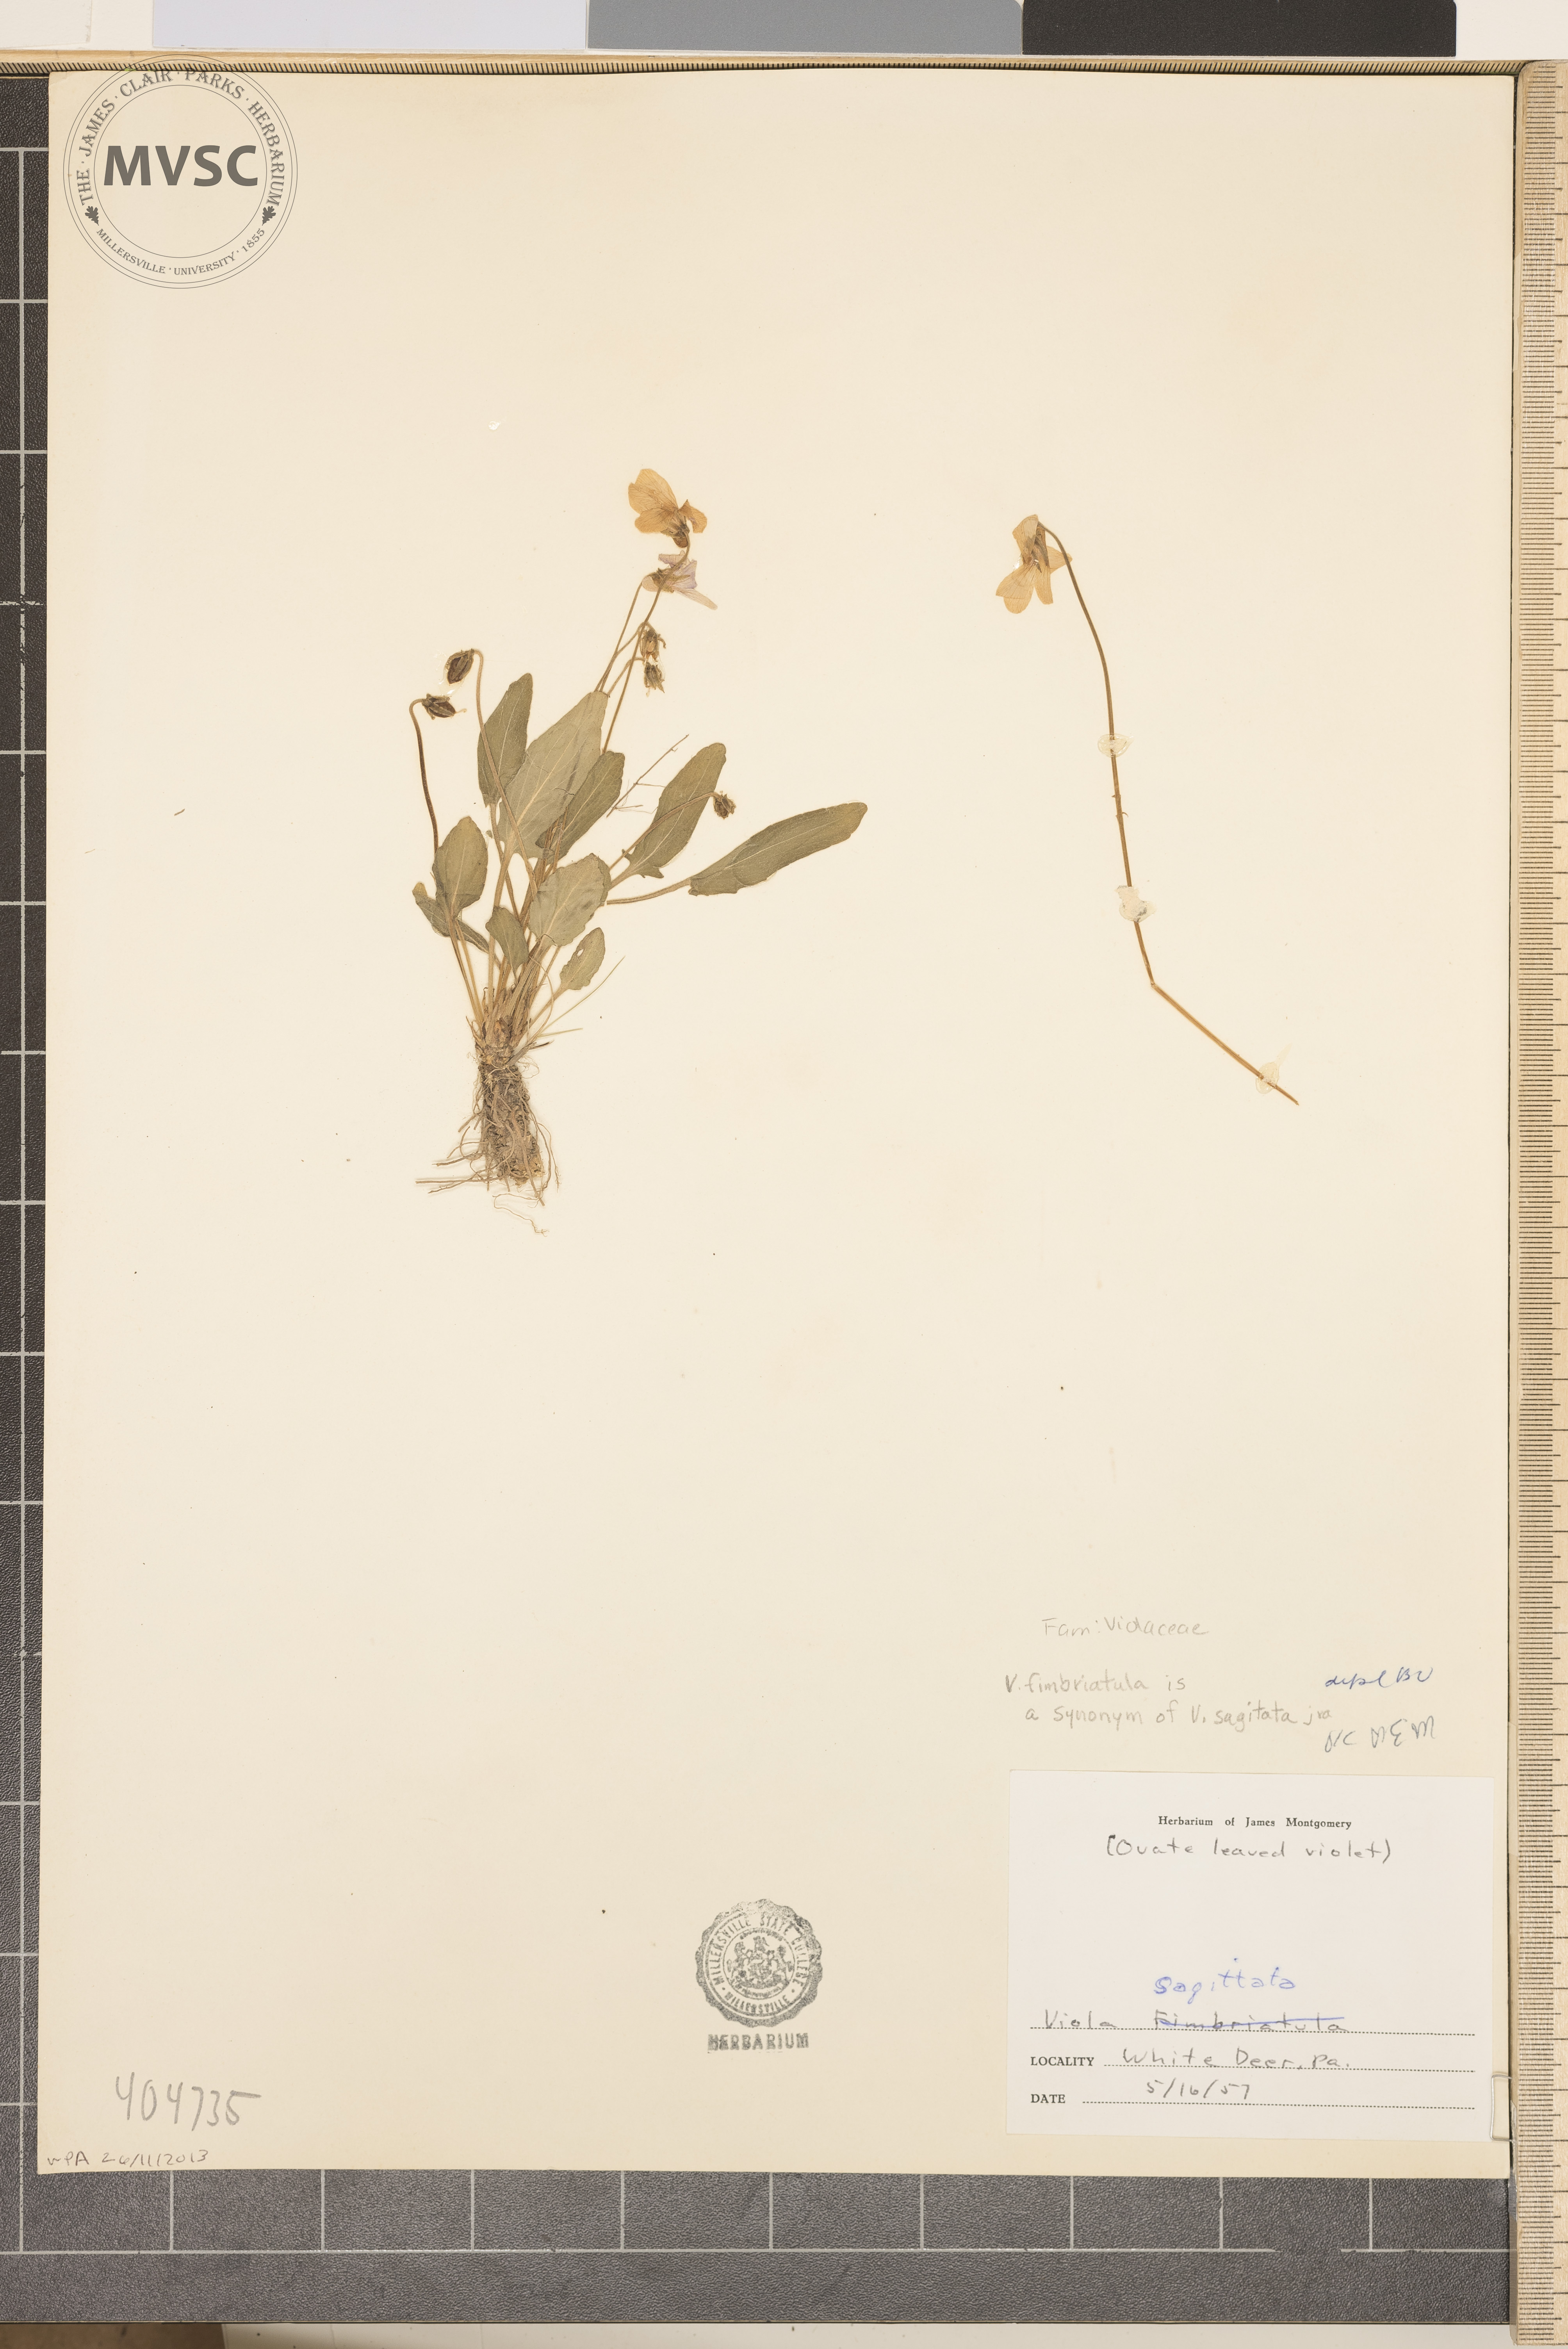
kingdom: Plantae
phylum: Tracheophyta
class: Magnoliopsida
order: Malpighiales
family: Violaceae
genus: Viola
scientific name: Viola sagittata
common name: Arrowhead violet
